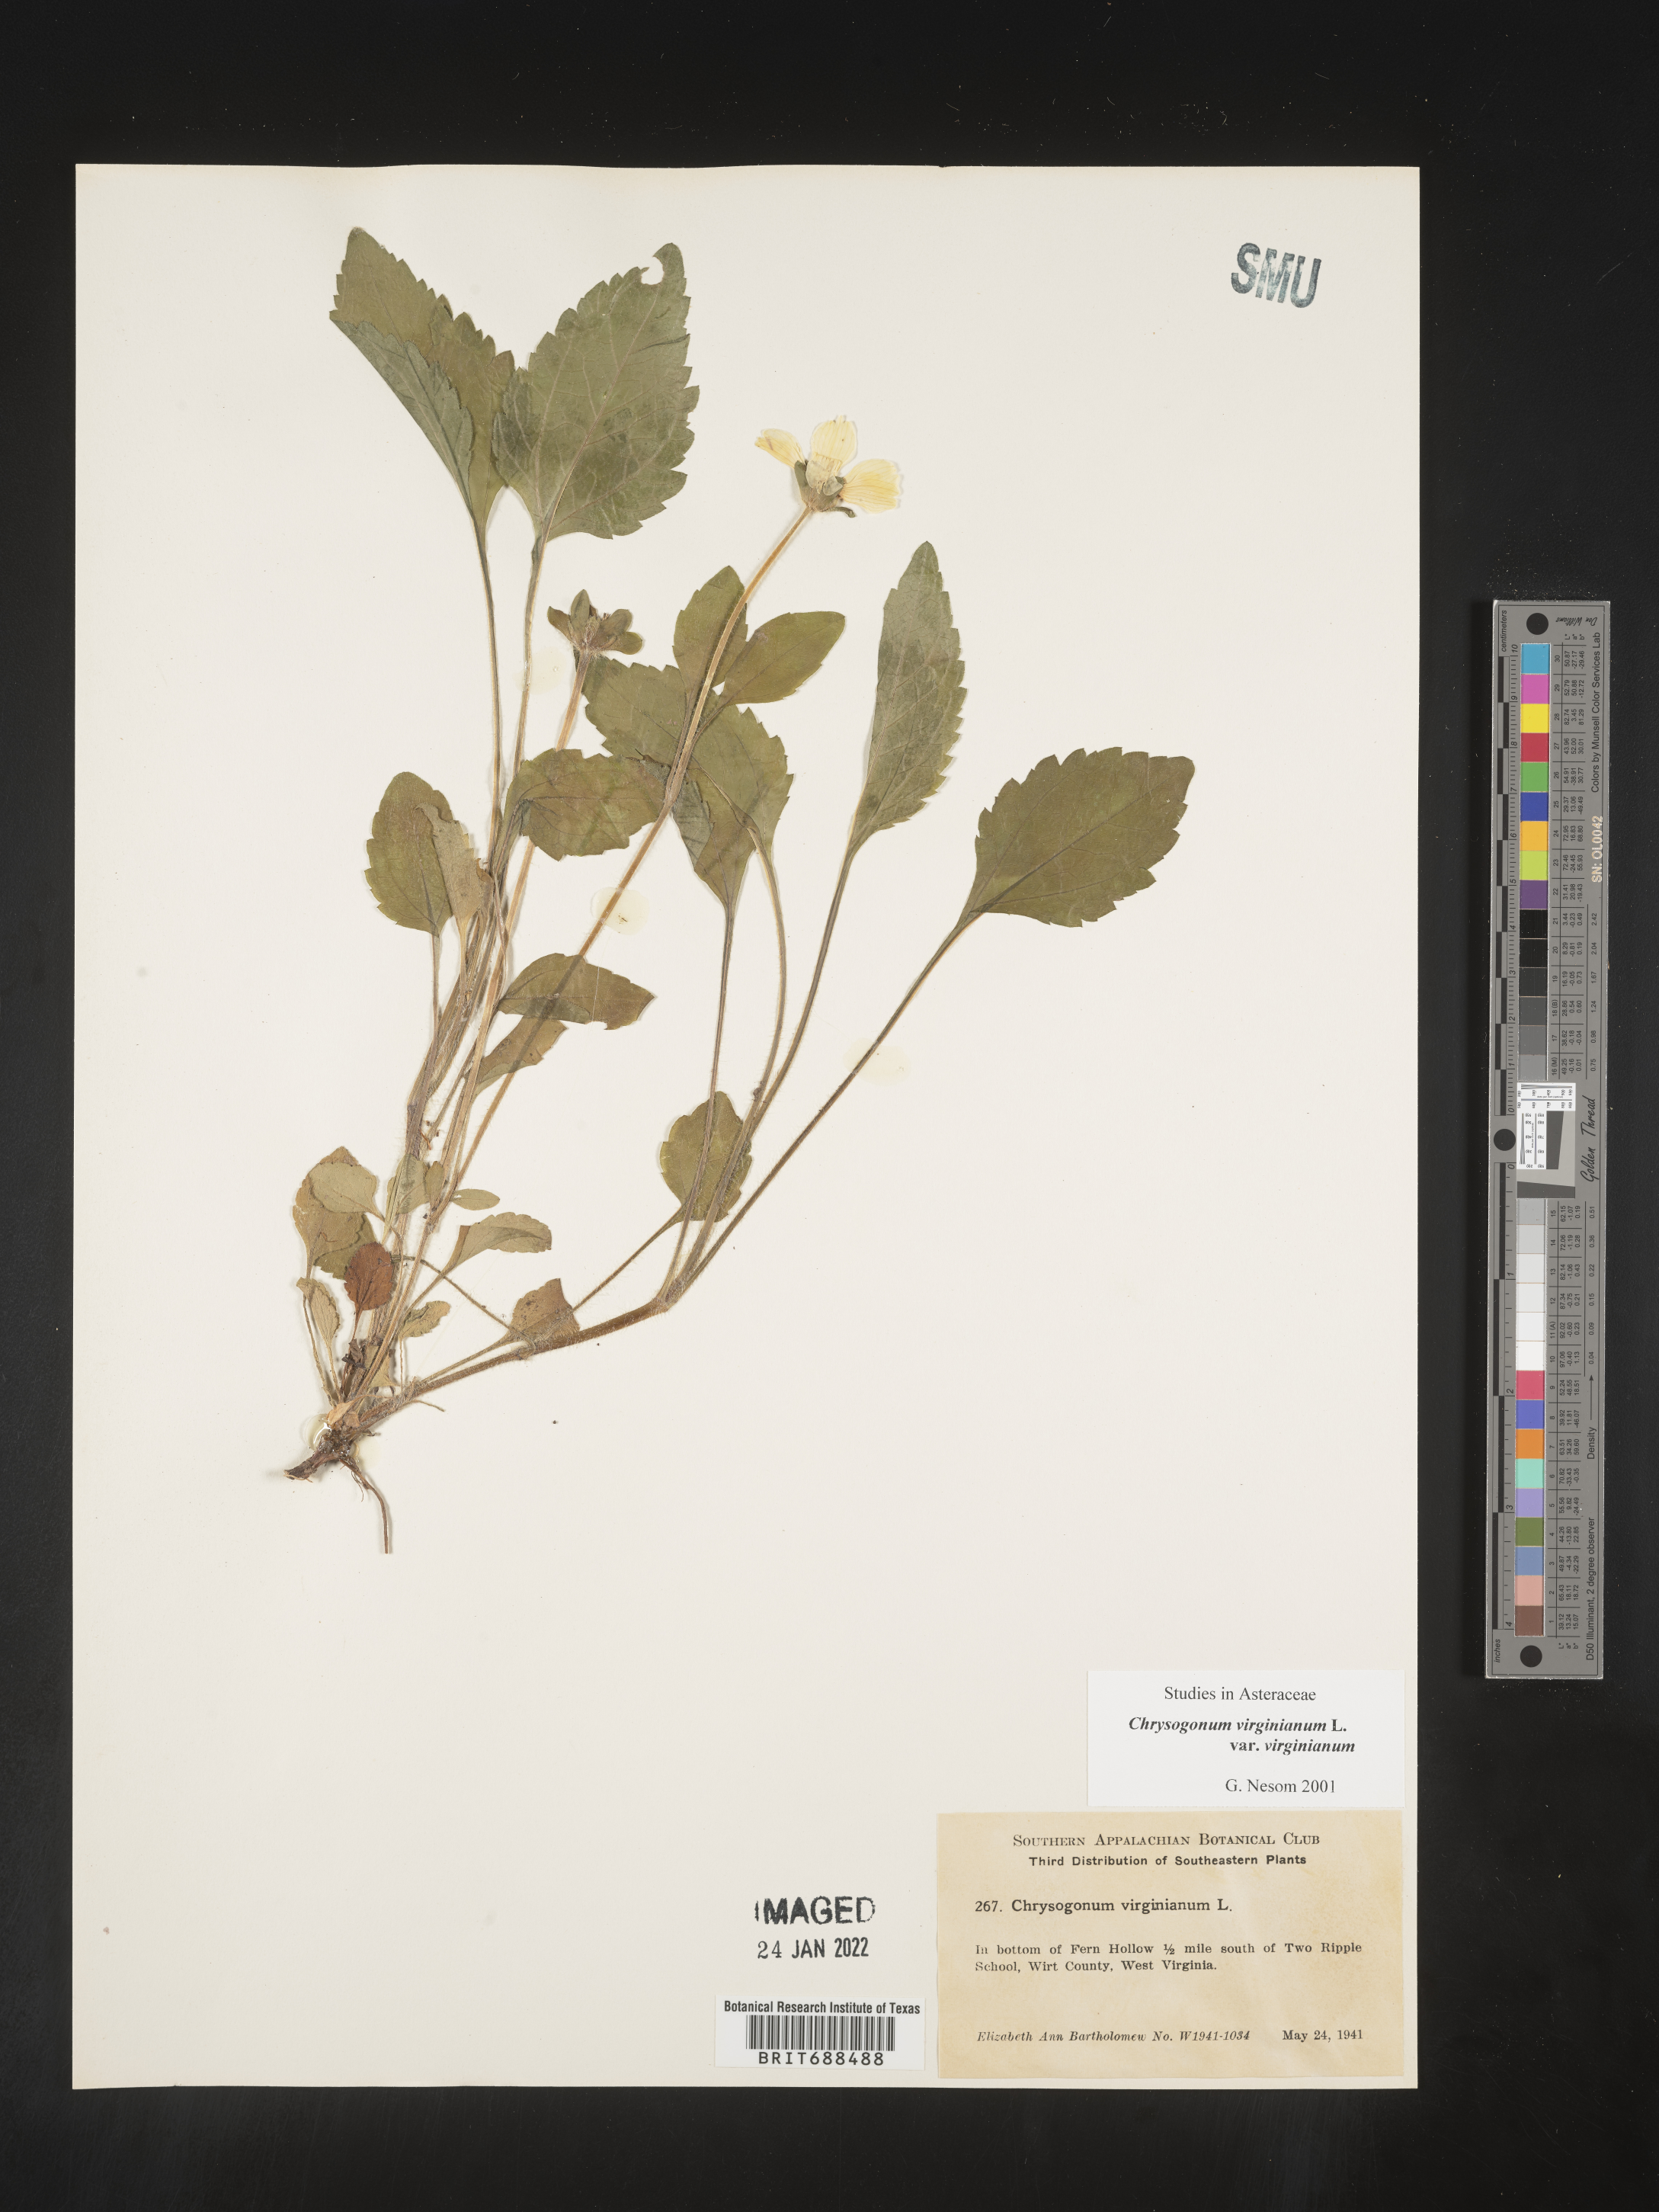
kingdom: Plantae
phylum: Tracheophyta
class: Magnoliopsida
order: Asterales
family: Asteraceae
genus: Chrysogonum
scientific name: Chrysogonum virginianum
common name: Golden-knee
